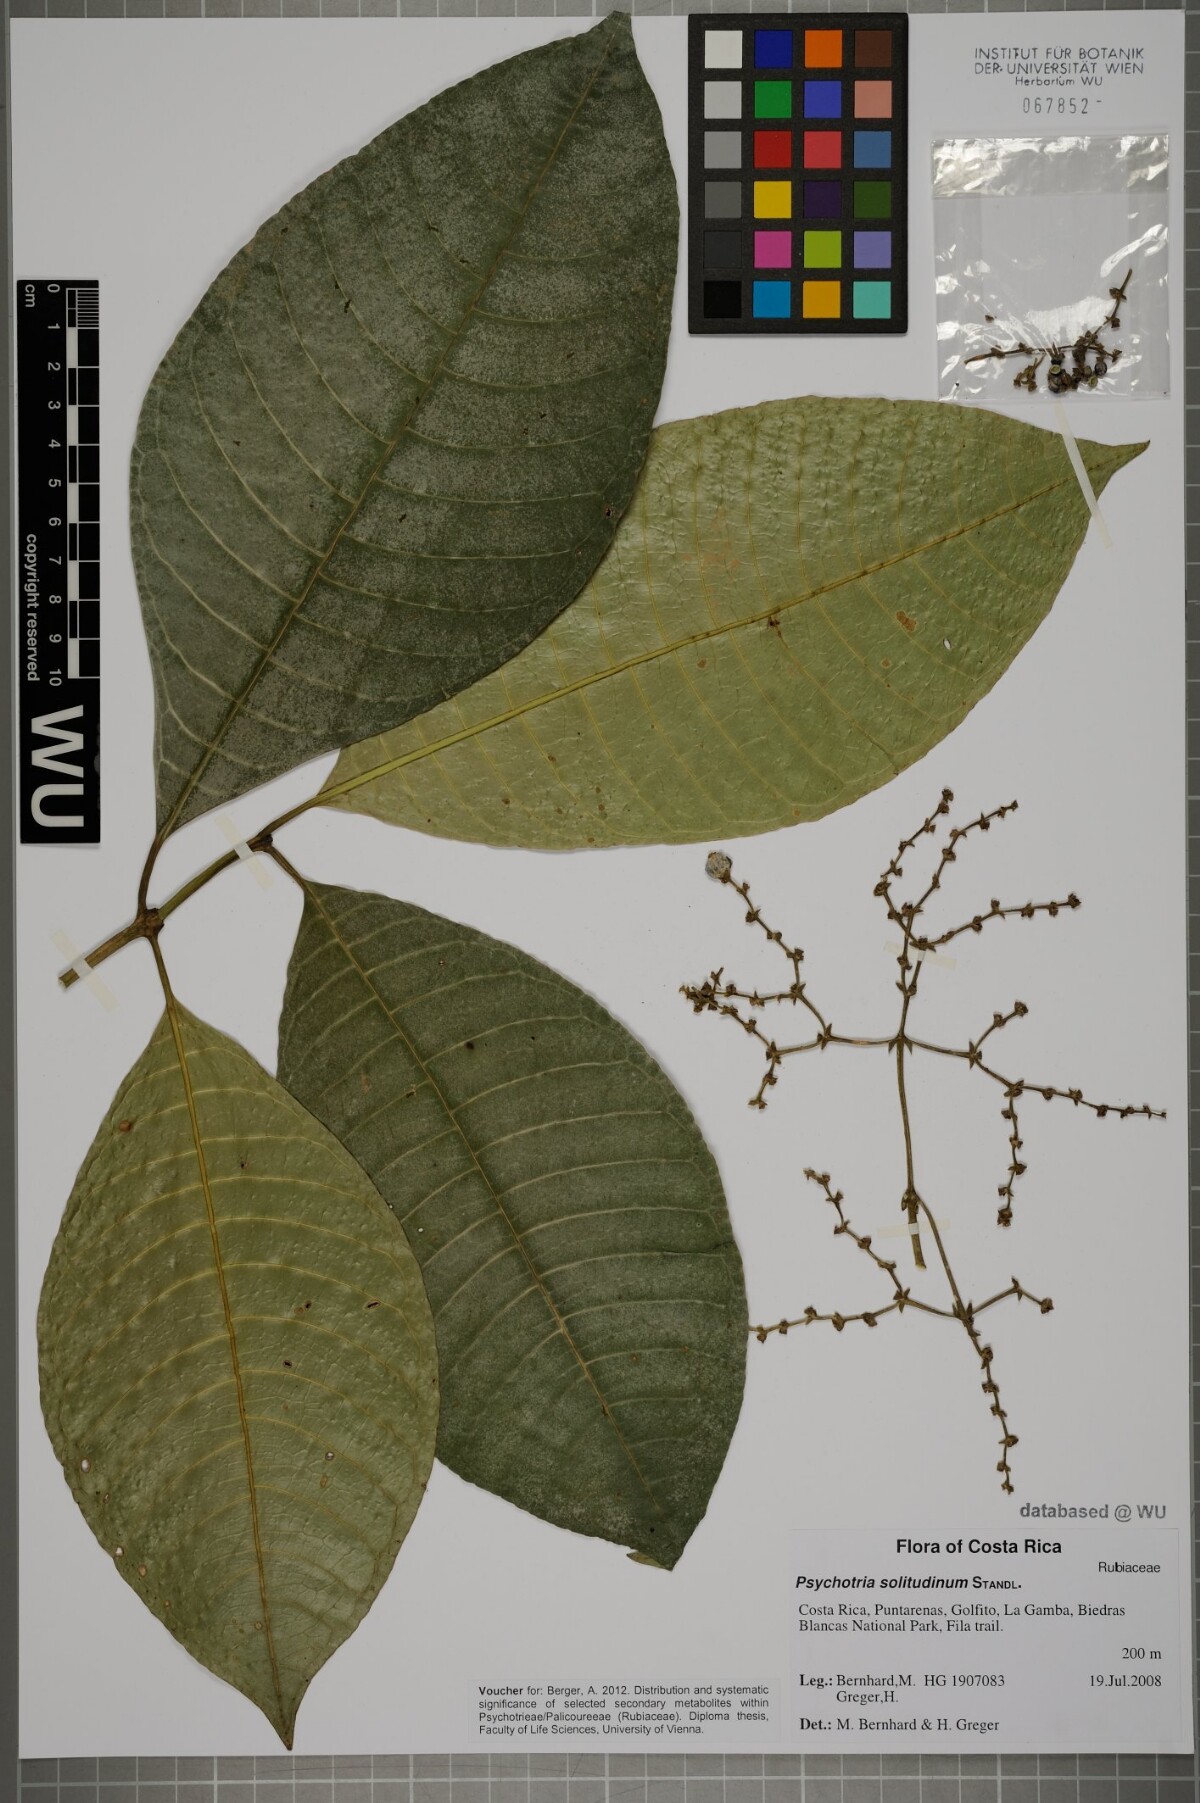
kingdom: Plantae
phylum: Tracheophyta
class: Magnoliopsida
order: Gentianales
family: Rubiaceae
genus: Palicourea
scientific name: Palicourea solitudinum
